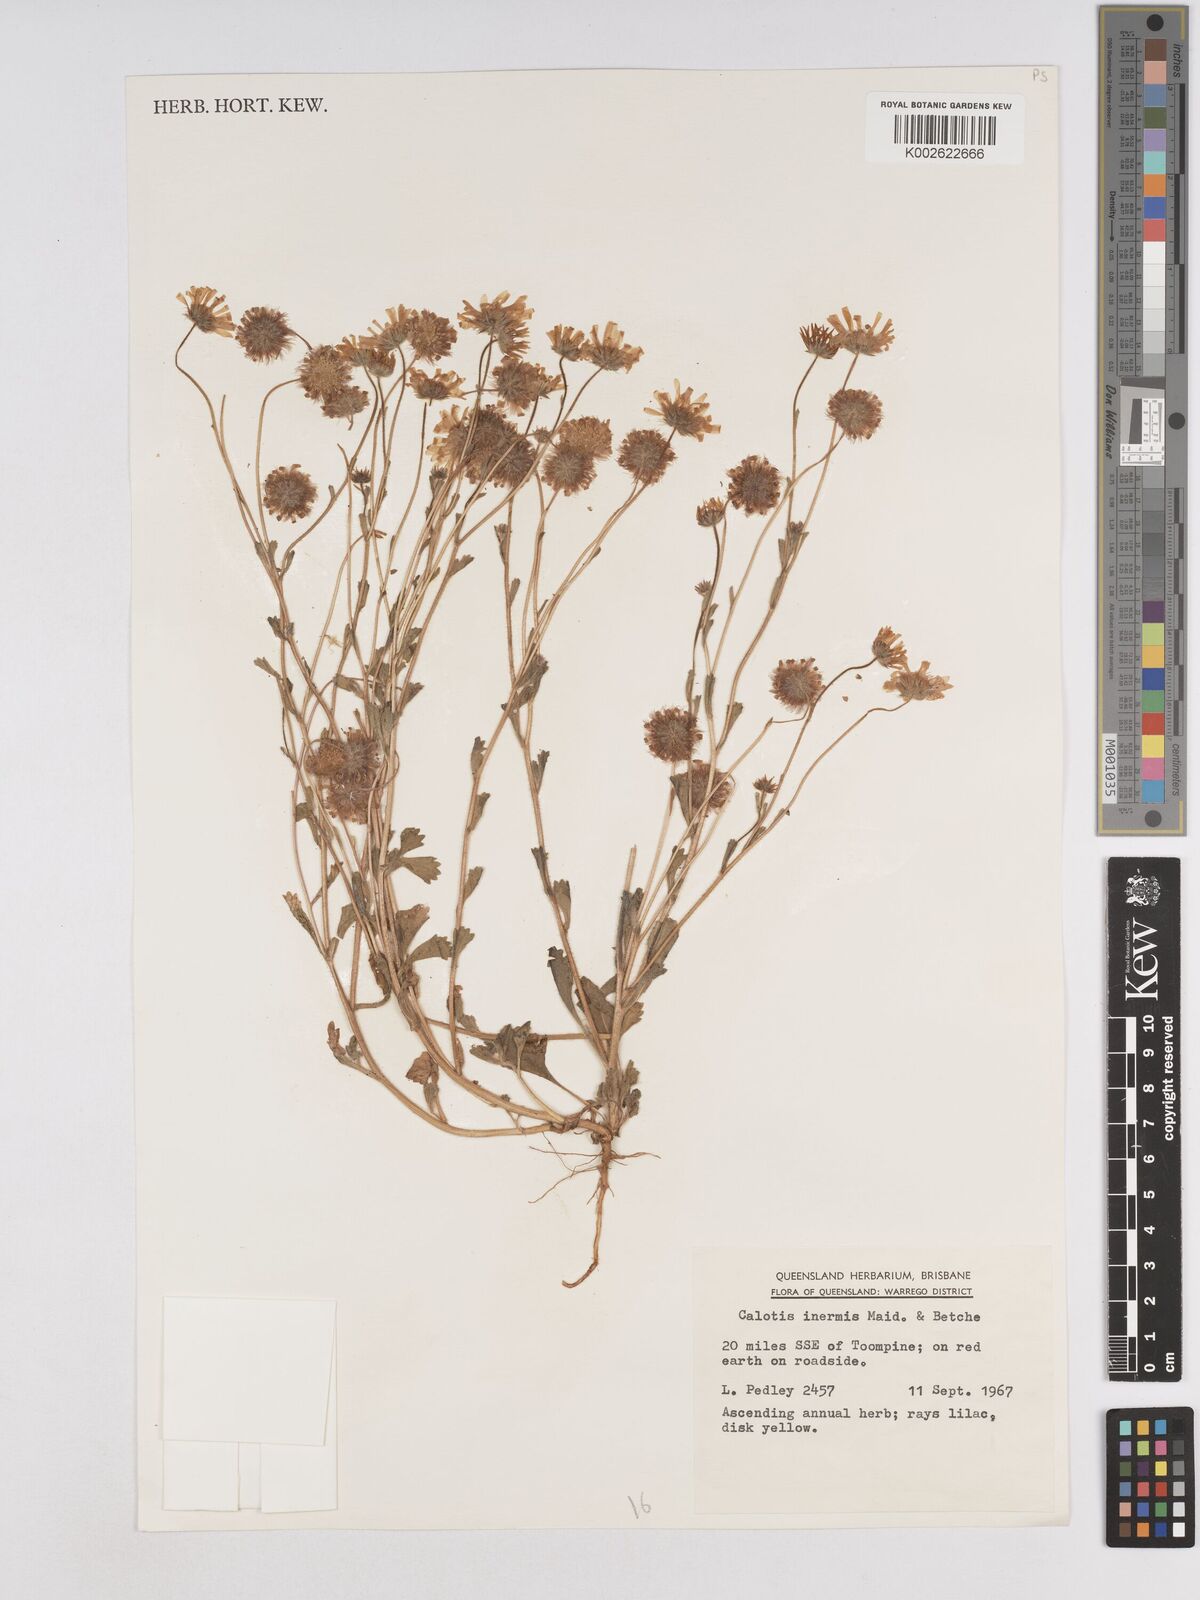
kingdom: Plantae
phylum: Tracheophyta
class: Magnoliopsida
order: Asterales
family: Asteraceae
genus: Calotis
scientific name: Calotis inermis
